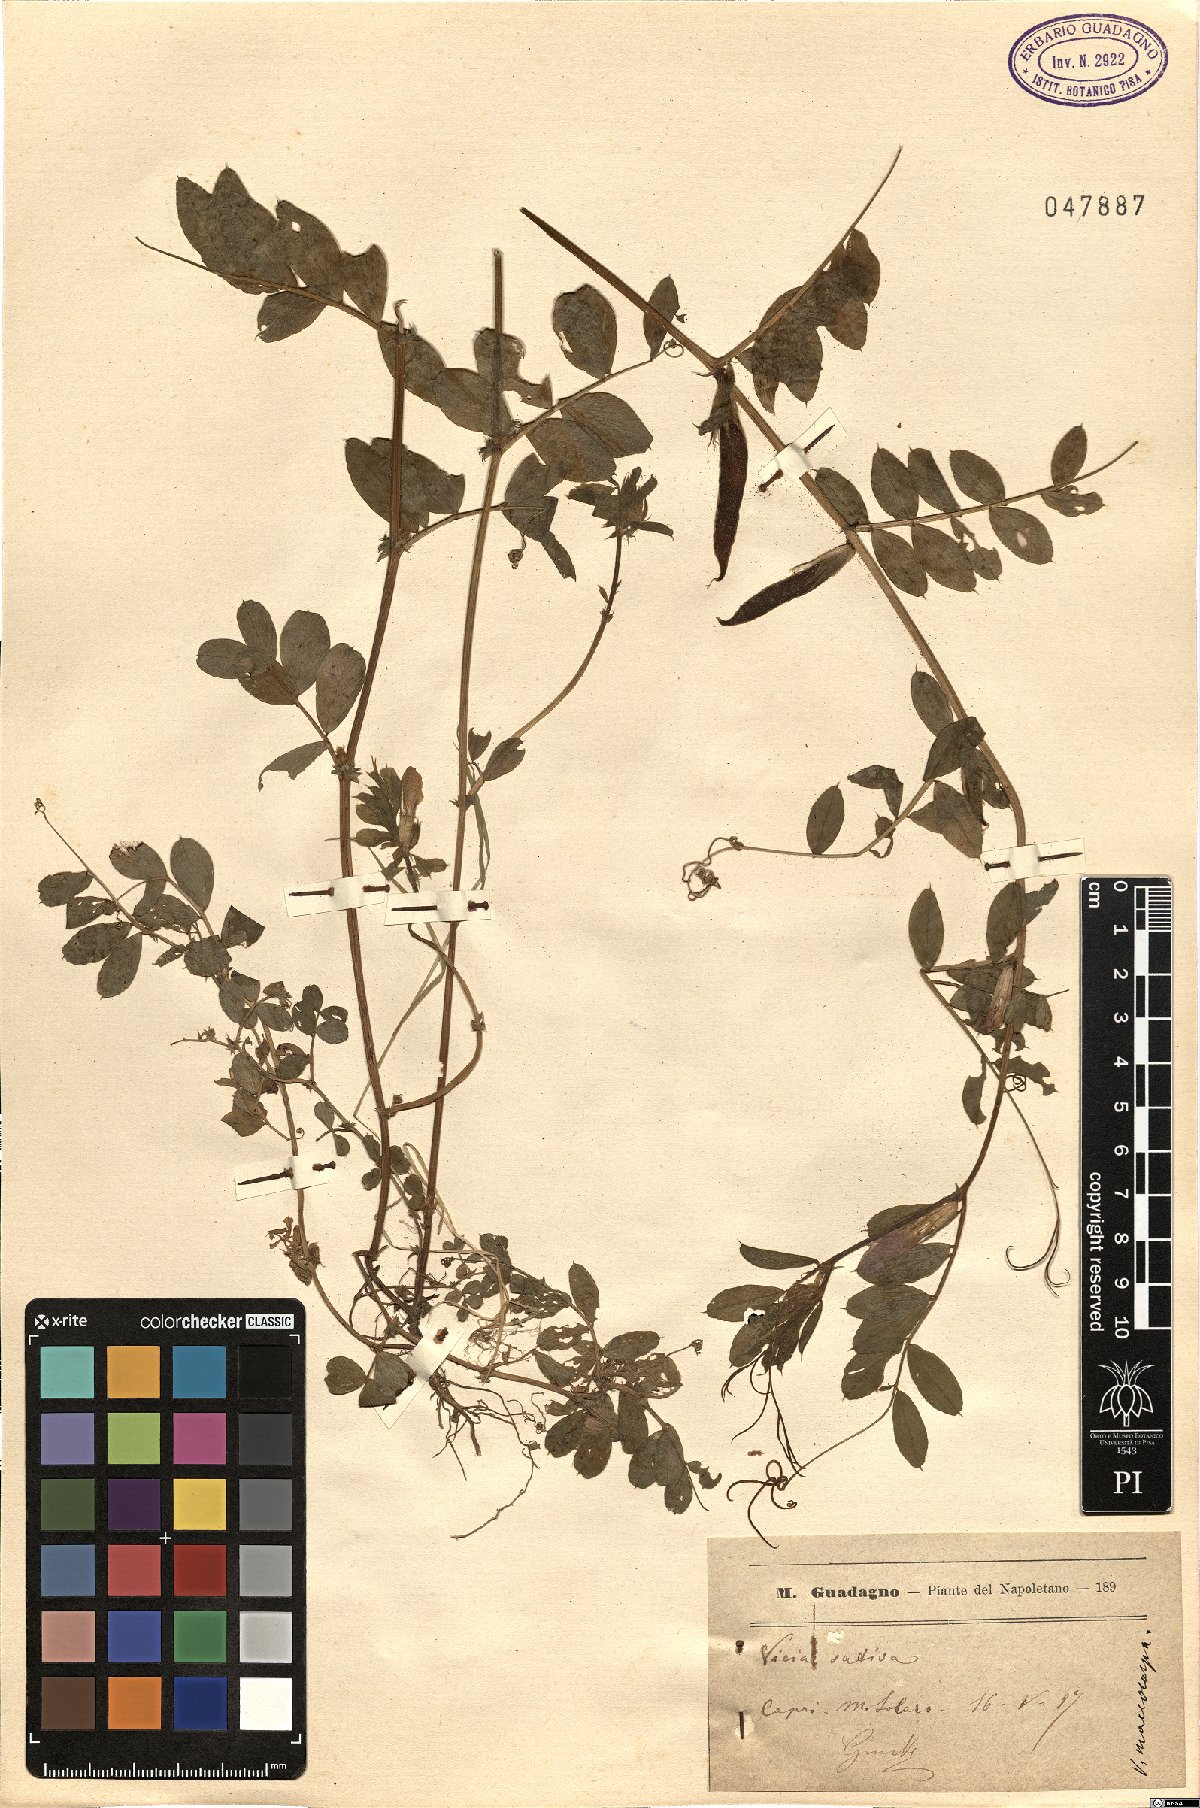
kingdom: Plantae
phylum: Tracheophyta
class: Magnoliopsida
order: Fabales
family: Fabaceae
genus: Vicia
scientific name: Vicia sativa
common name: Garden vetch
